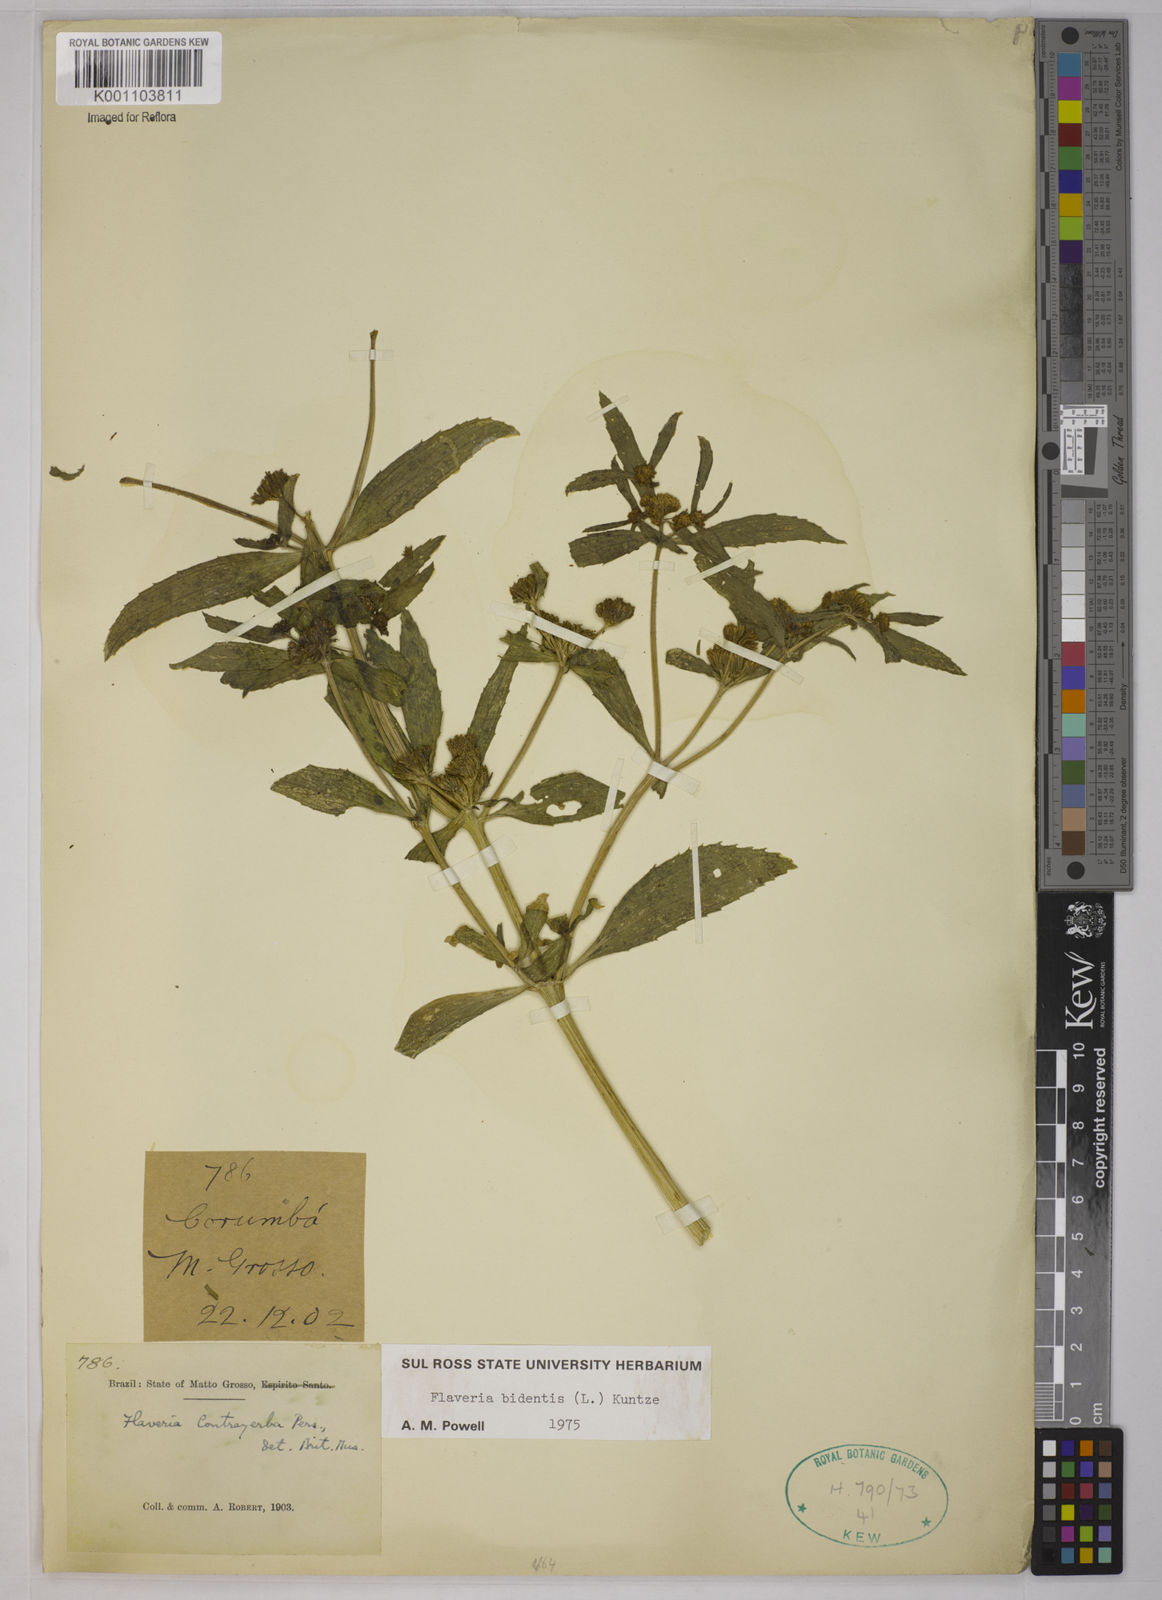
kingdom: Plantae
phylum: Tracheophyta
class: Magnoliopsida
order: Asterales
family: Asteraceae
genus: Flaveria
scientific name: Flaveria trinervia
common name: Clustered yellowtops
